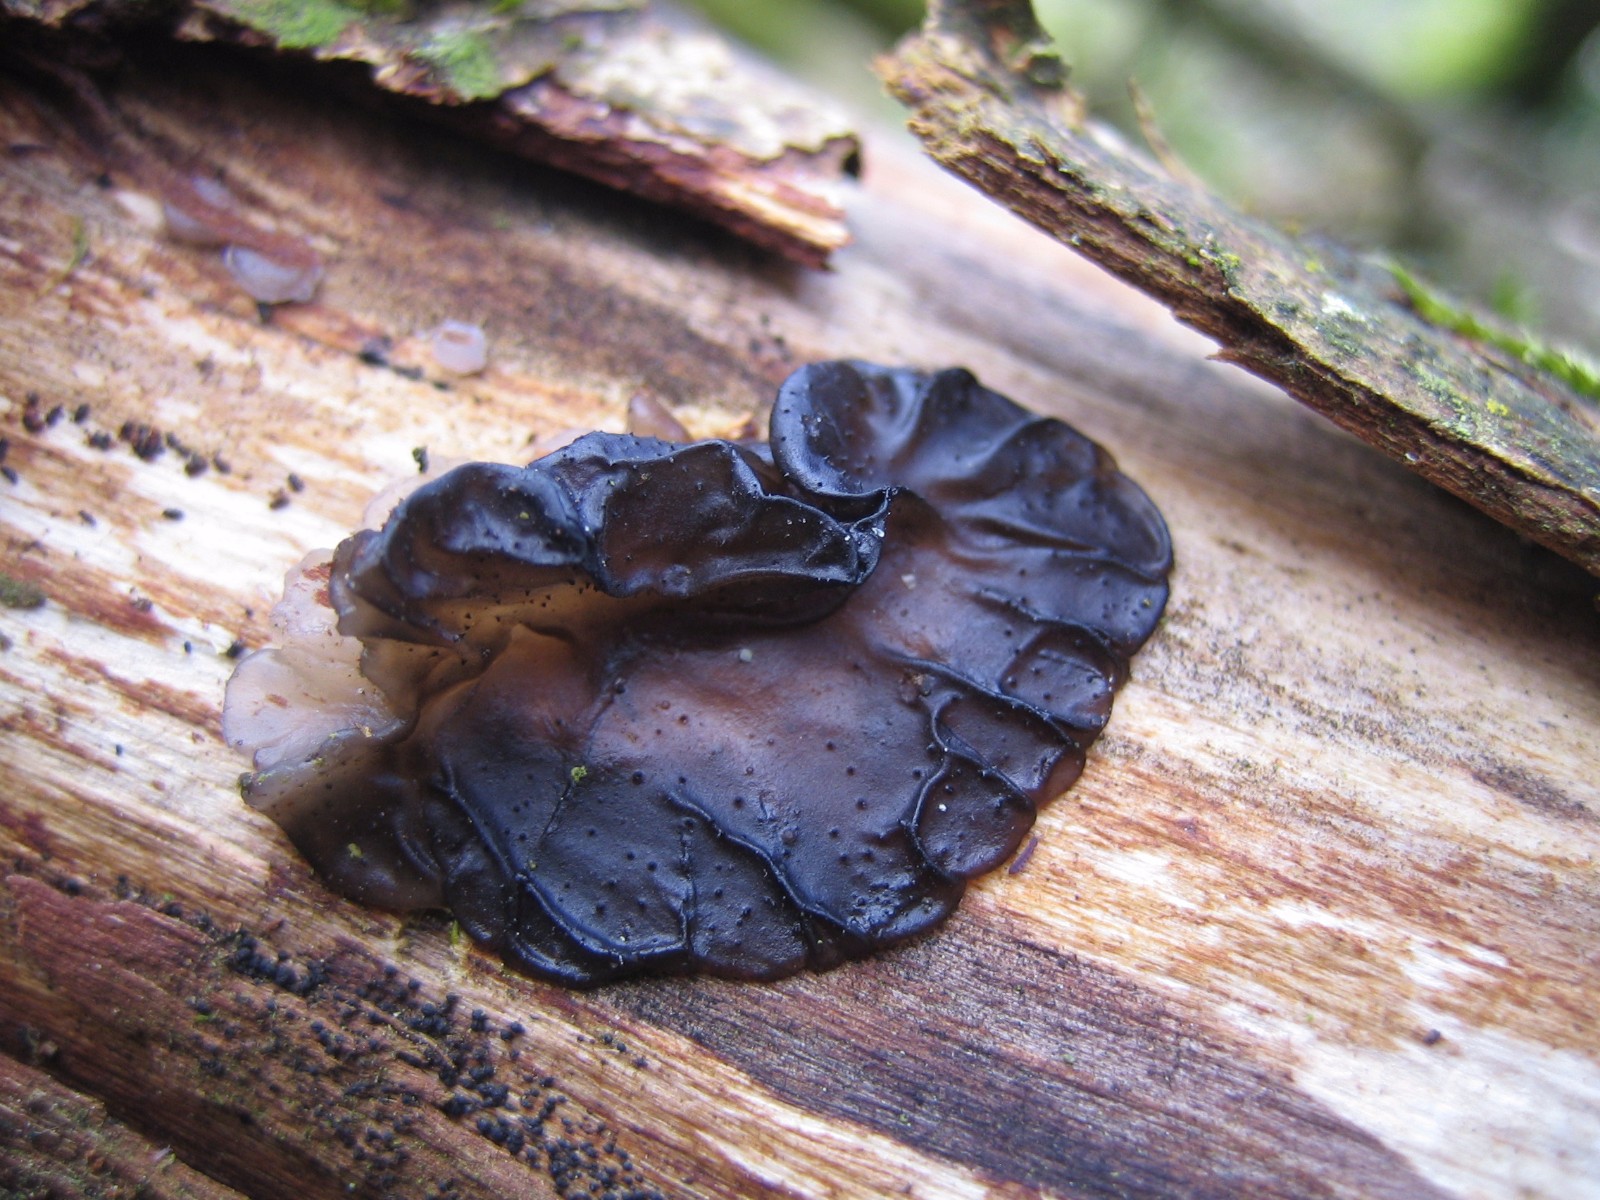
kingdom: Fungi
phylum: Basidiomycota
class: Tremellomycetes
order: Tremellales
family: Exidiaceae
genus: Exidia
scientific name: Exidia
